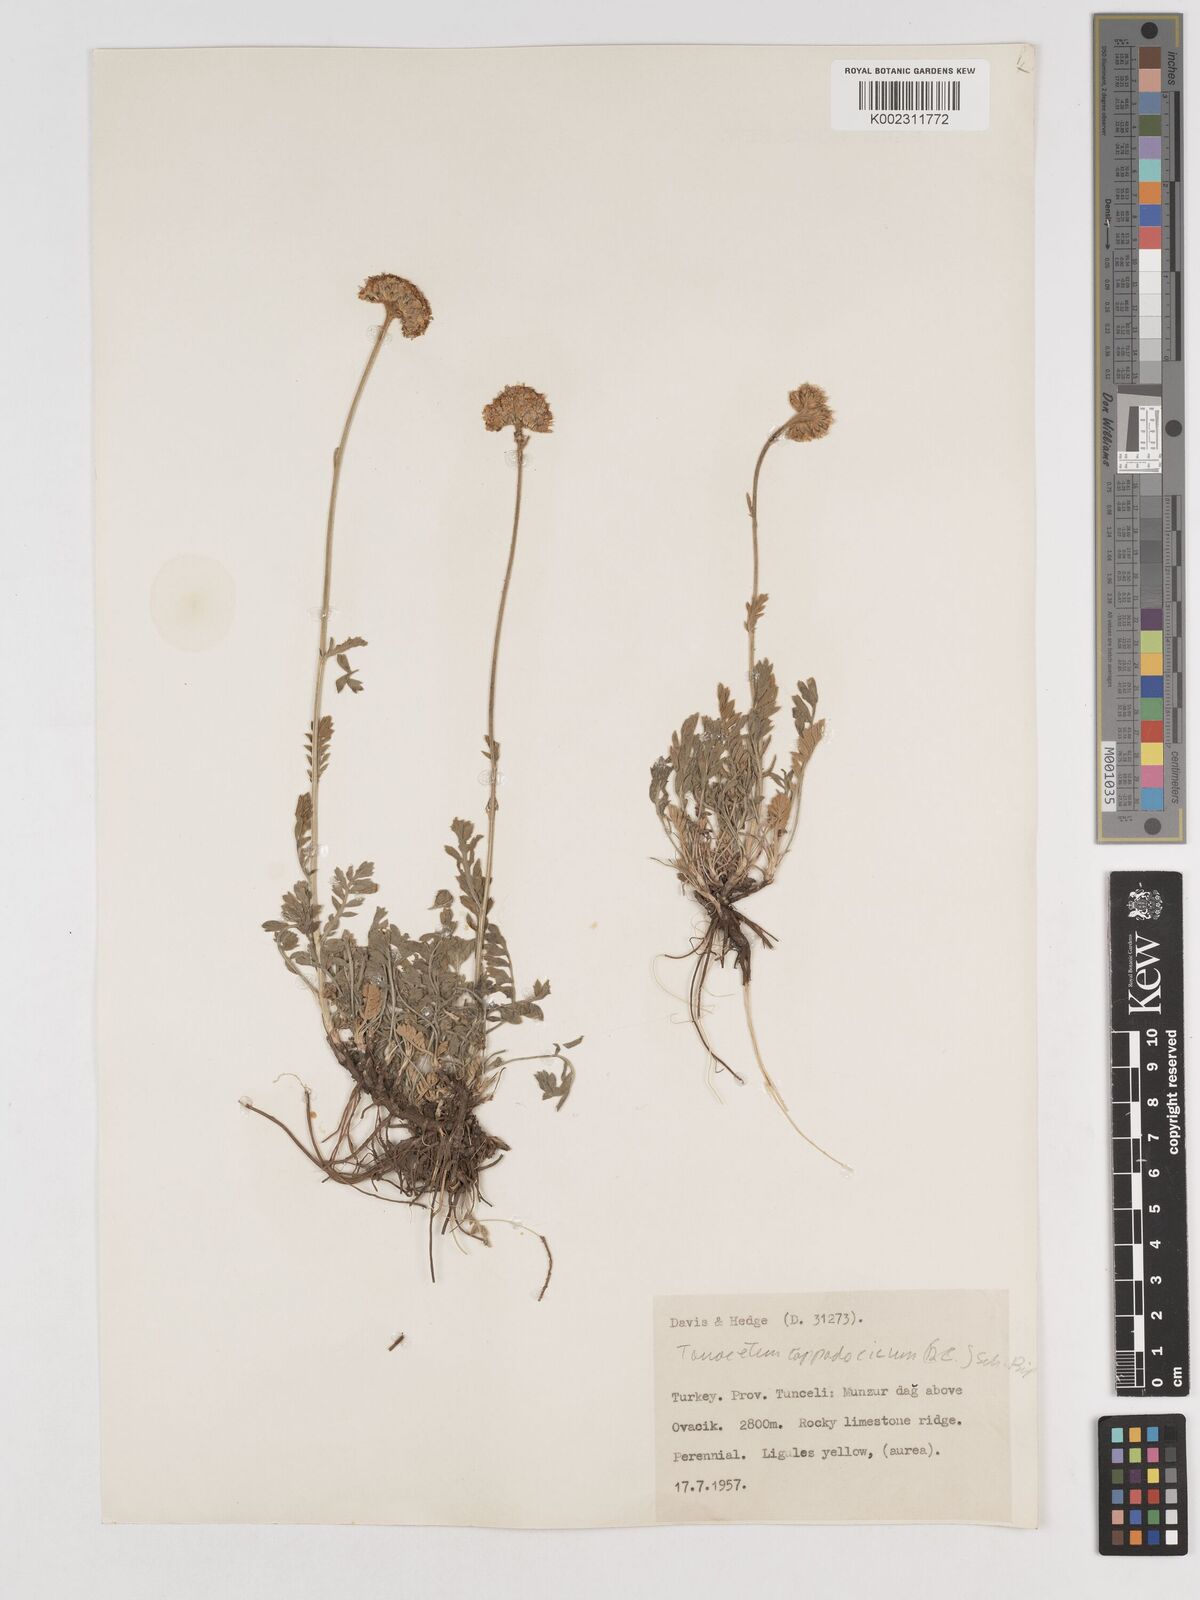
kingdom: Plantae
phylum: Tracheophyta
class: Magnoliopsida
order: Asterales
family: Asteraceae
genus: Tanacetum
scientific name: Tanacetum cappadocicum
